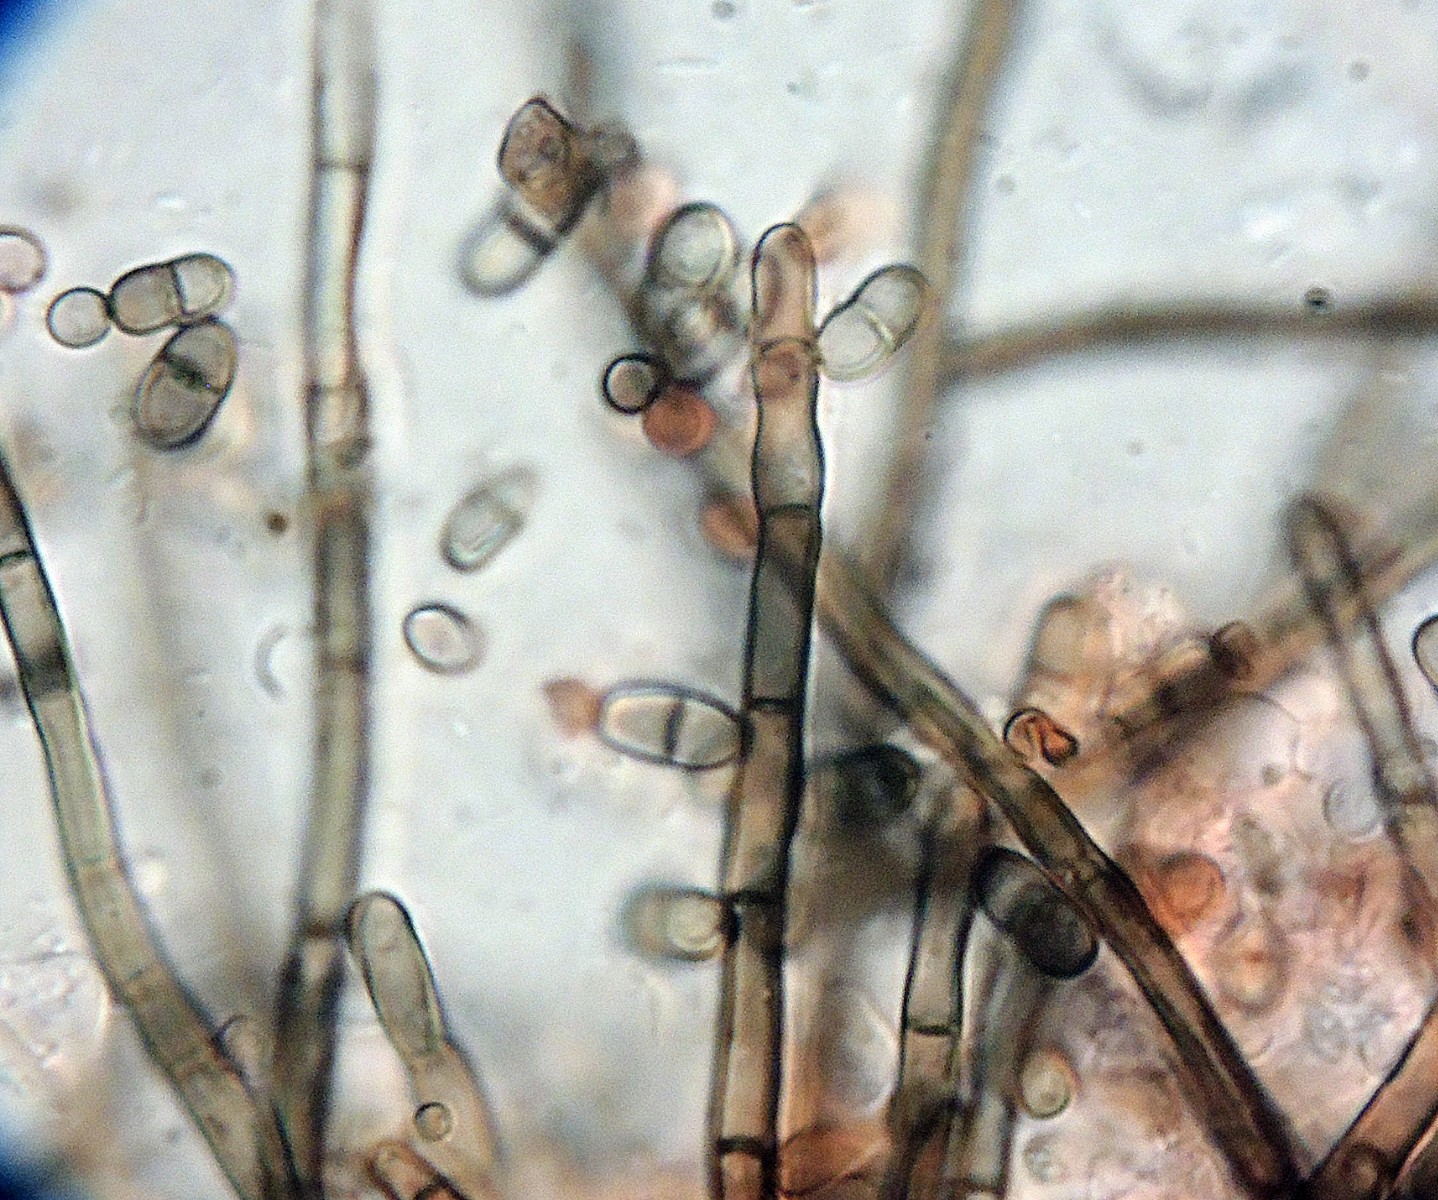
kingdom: Fungi
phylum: Ascomycota
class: Sordariomycetes
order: Sordariales
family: Helminthosphaeriaceae
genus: Helminthosphaeria
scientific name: Helminthosphaeria
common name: svampesnyltekerne
